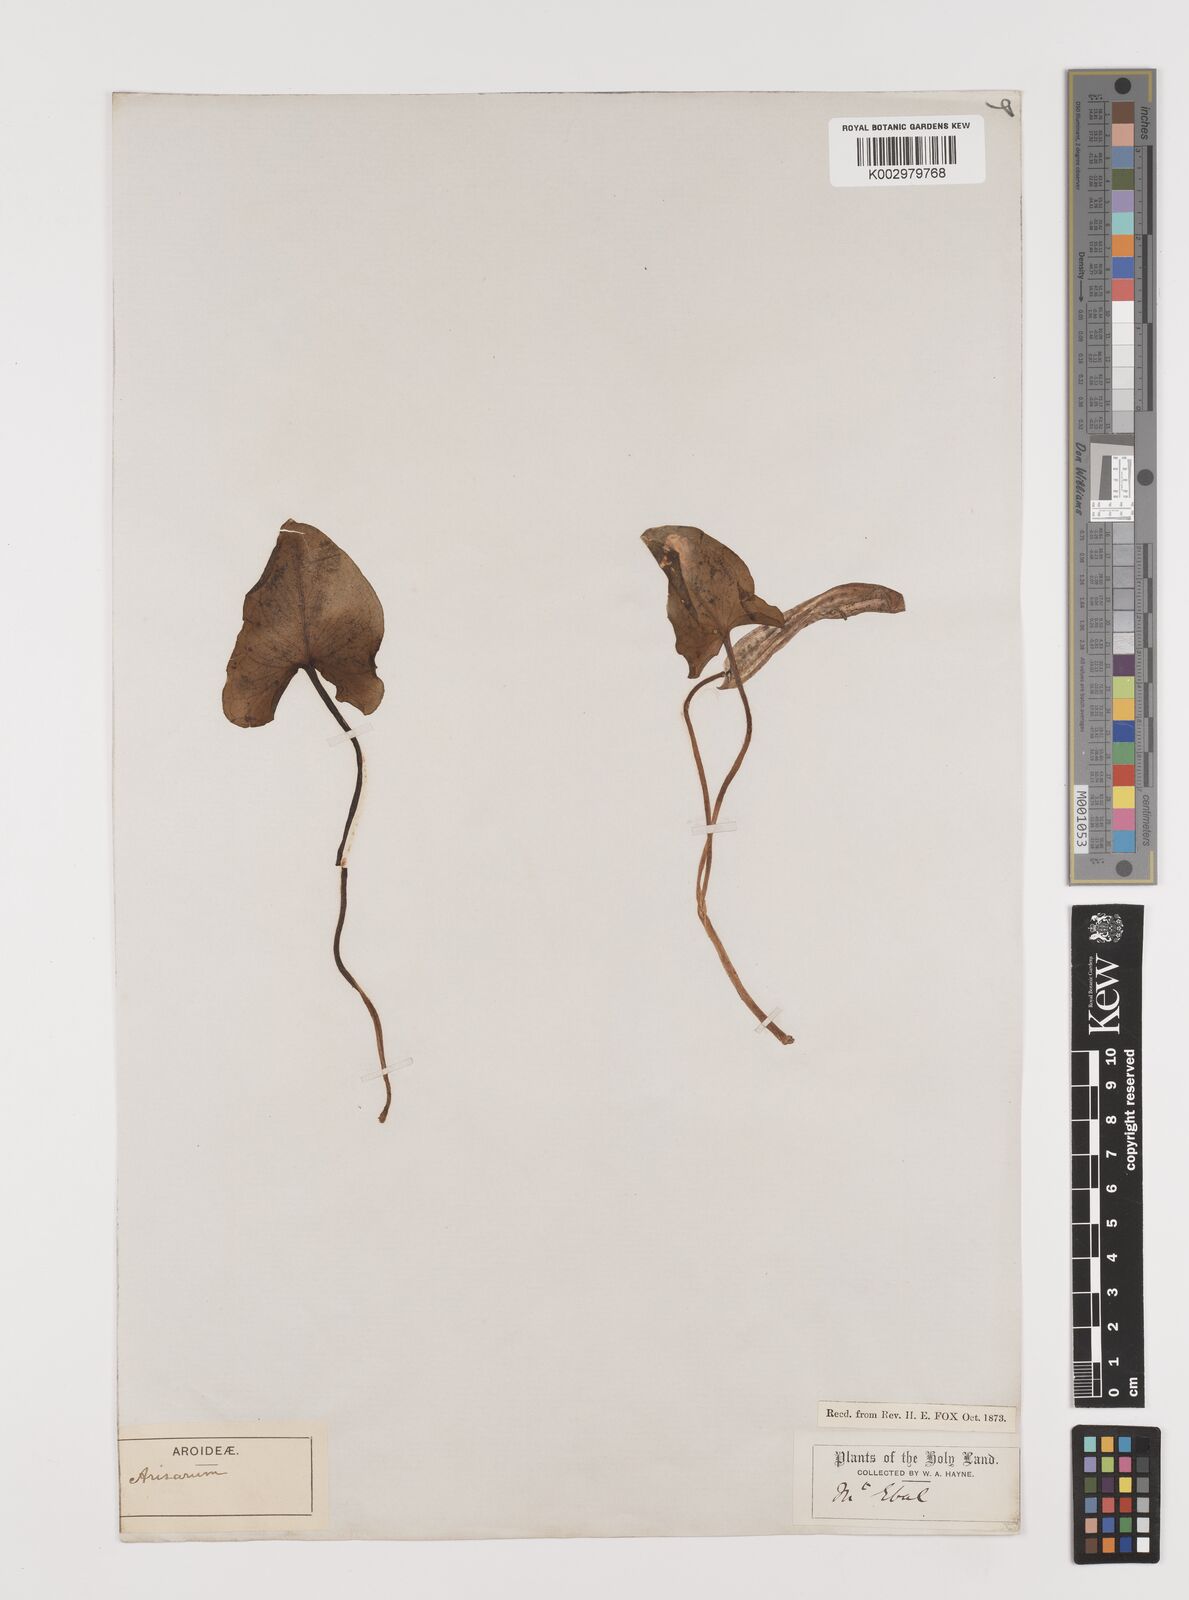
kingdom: Plantae
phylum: Tracheophyta
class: Liliopsida
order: Alismatales
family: Araceae
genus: Arisarum
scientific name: Arisarum vulgare
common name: Common arisarum
